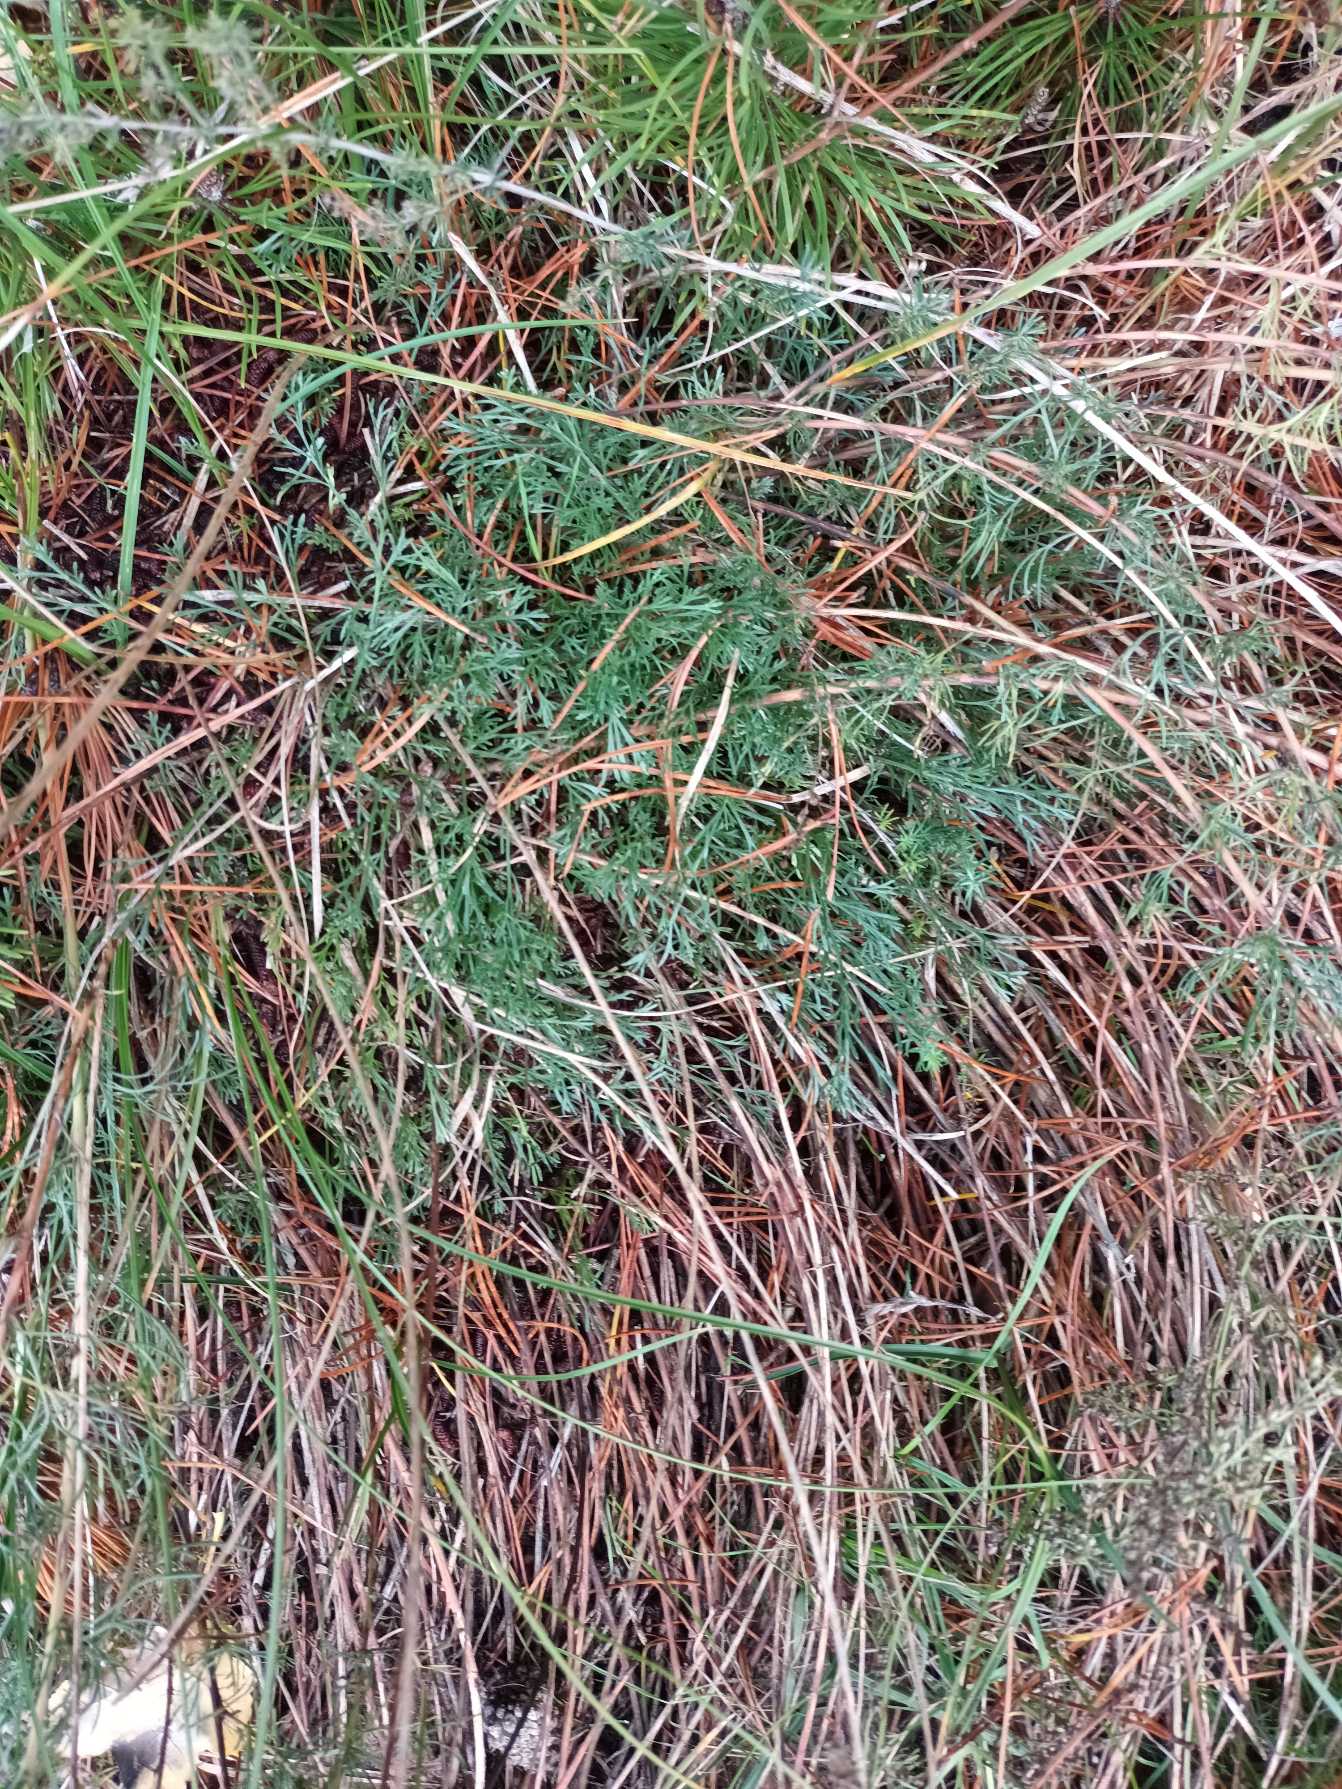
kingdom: Plantae
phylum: Tracheophyta
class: Magnoliopsida
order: Asterales
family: Asteraceae
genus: Artemisia
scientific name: Artemisia campestris
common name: Mark-bynke
